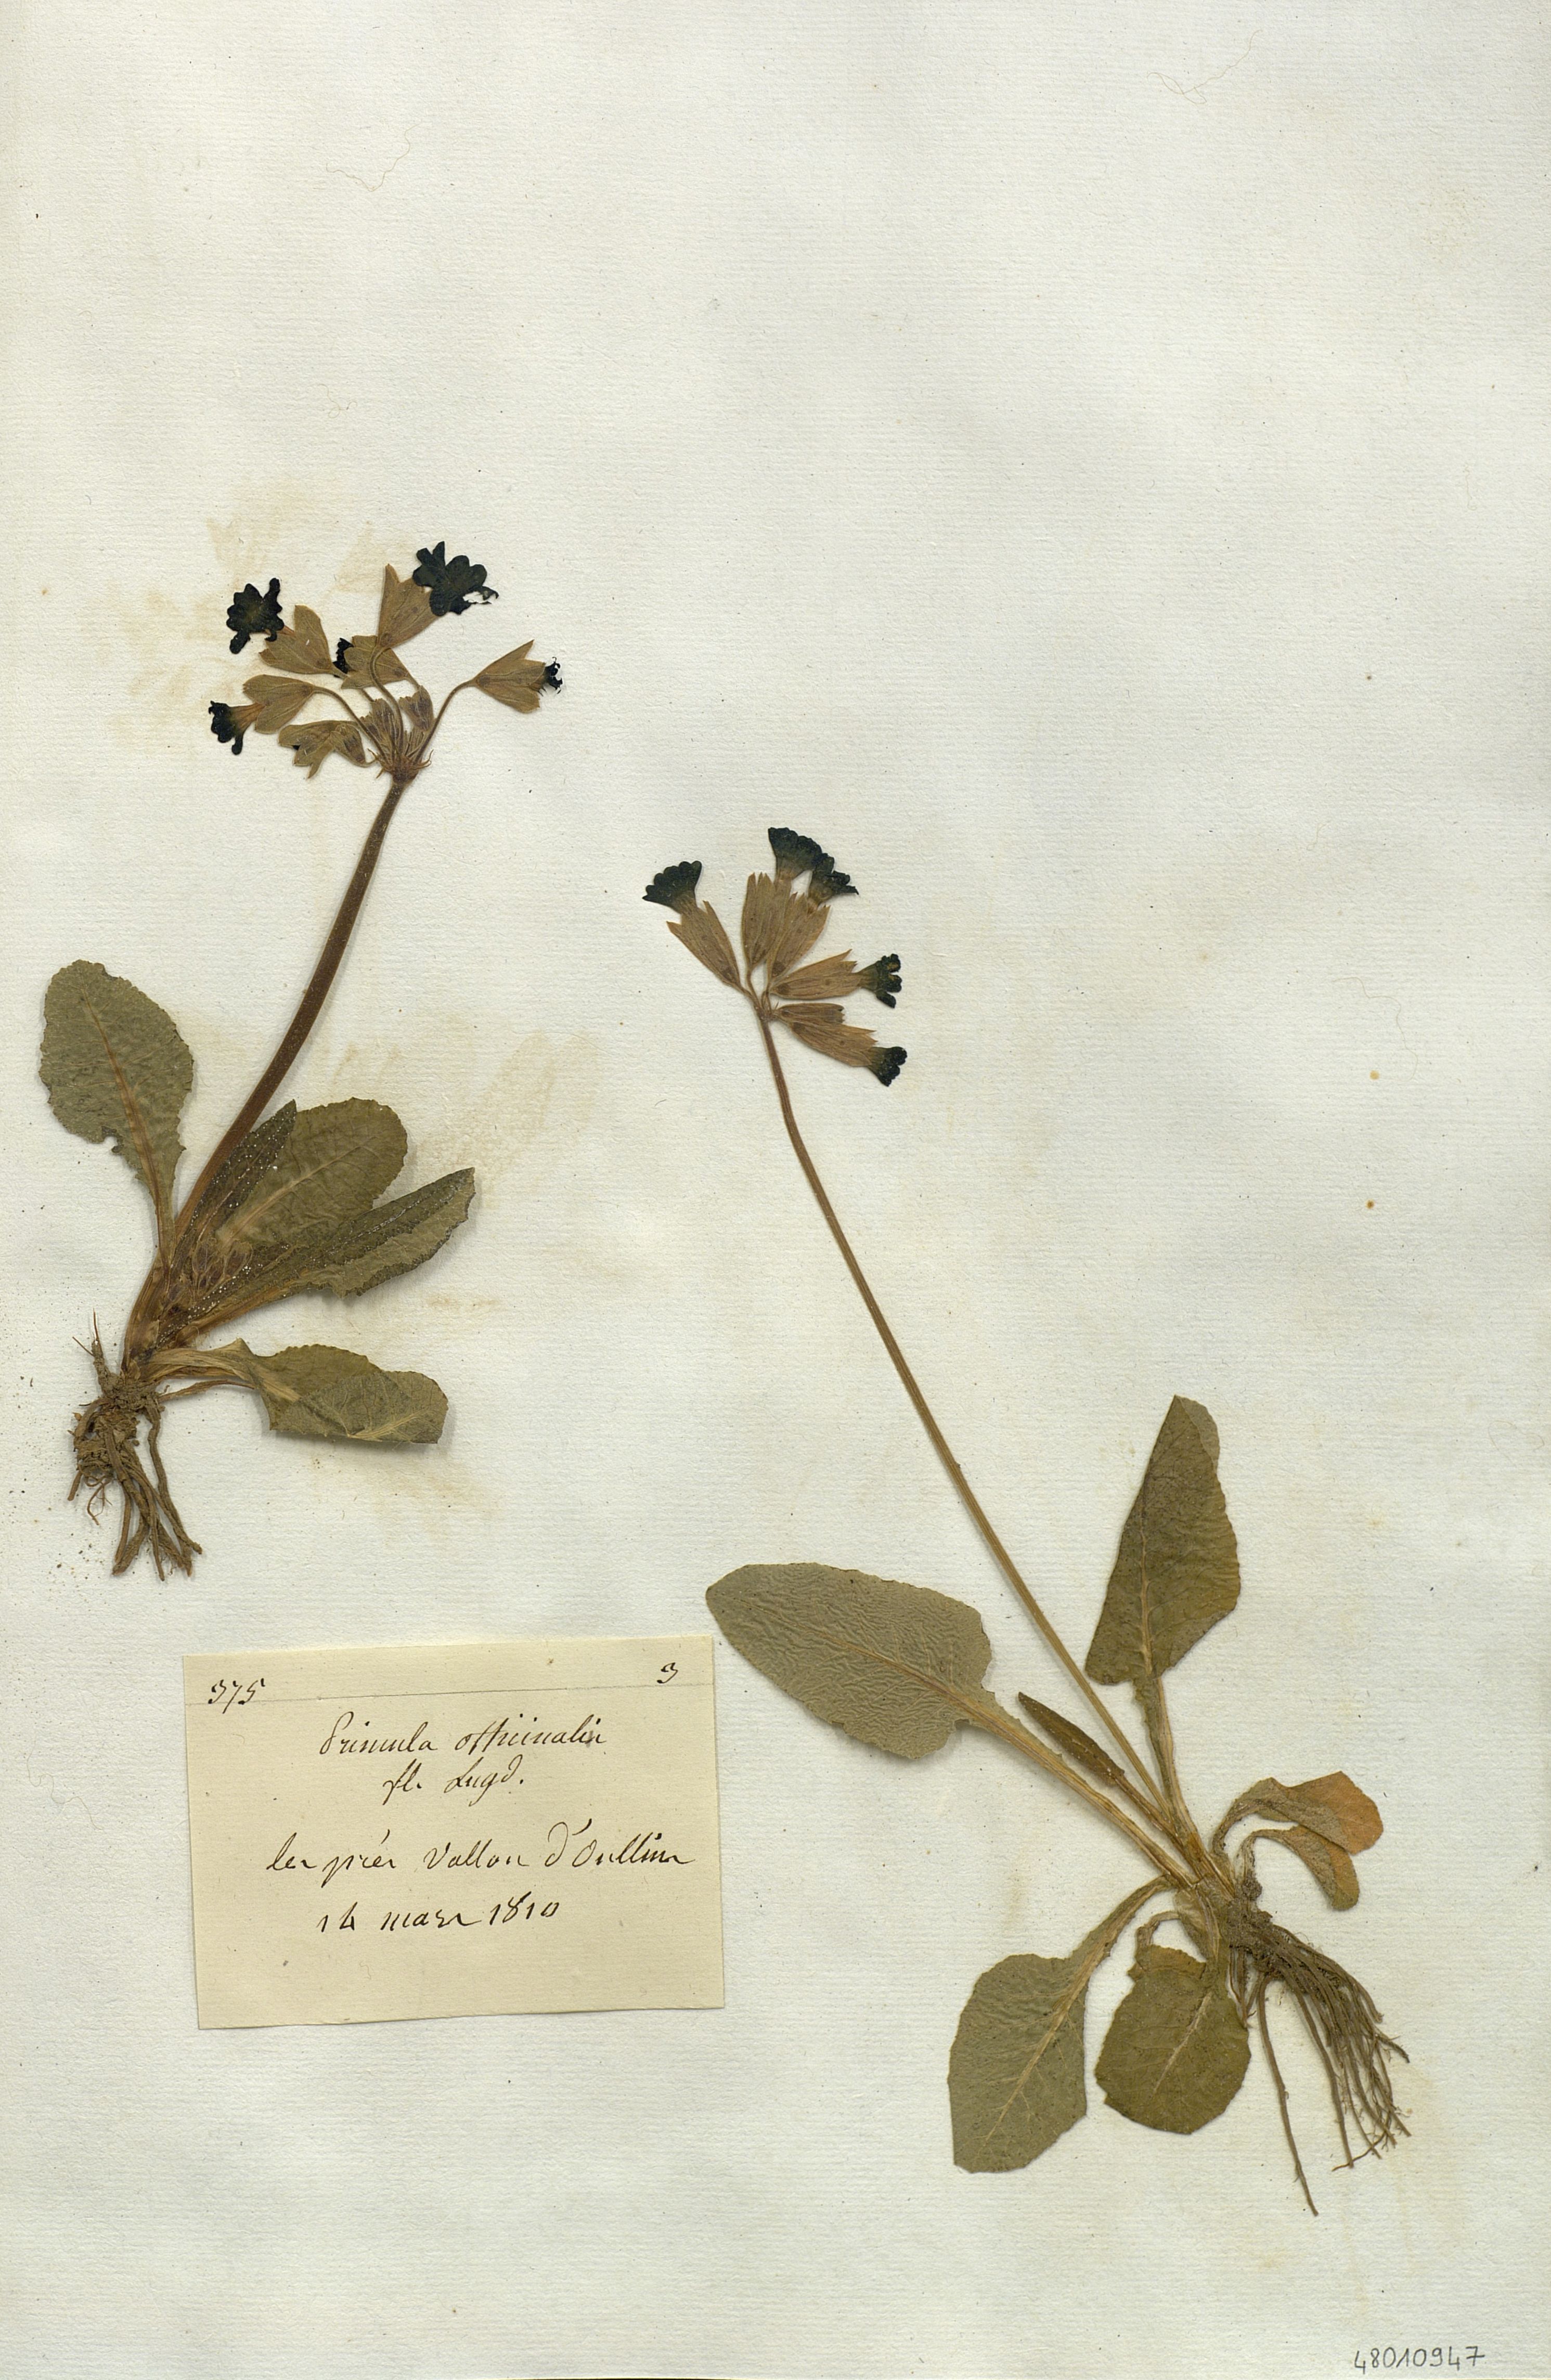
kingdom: Plantae
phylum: Tracheophyta
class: Magnoliopsida
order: Ericales
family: Primulaceae
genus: Primula
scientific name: Primula officinalis
